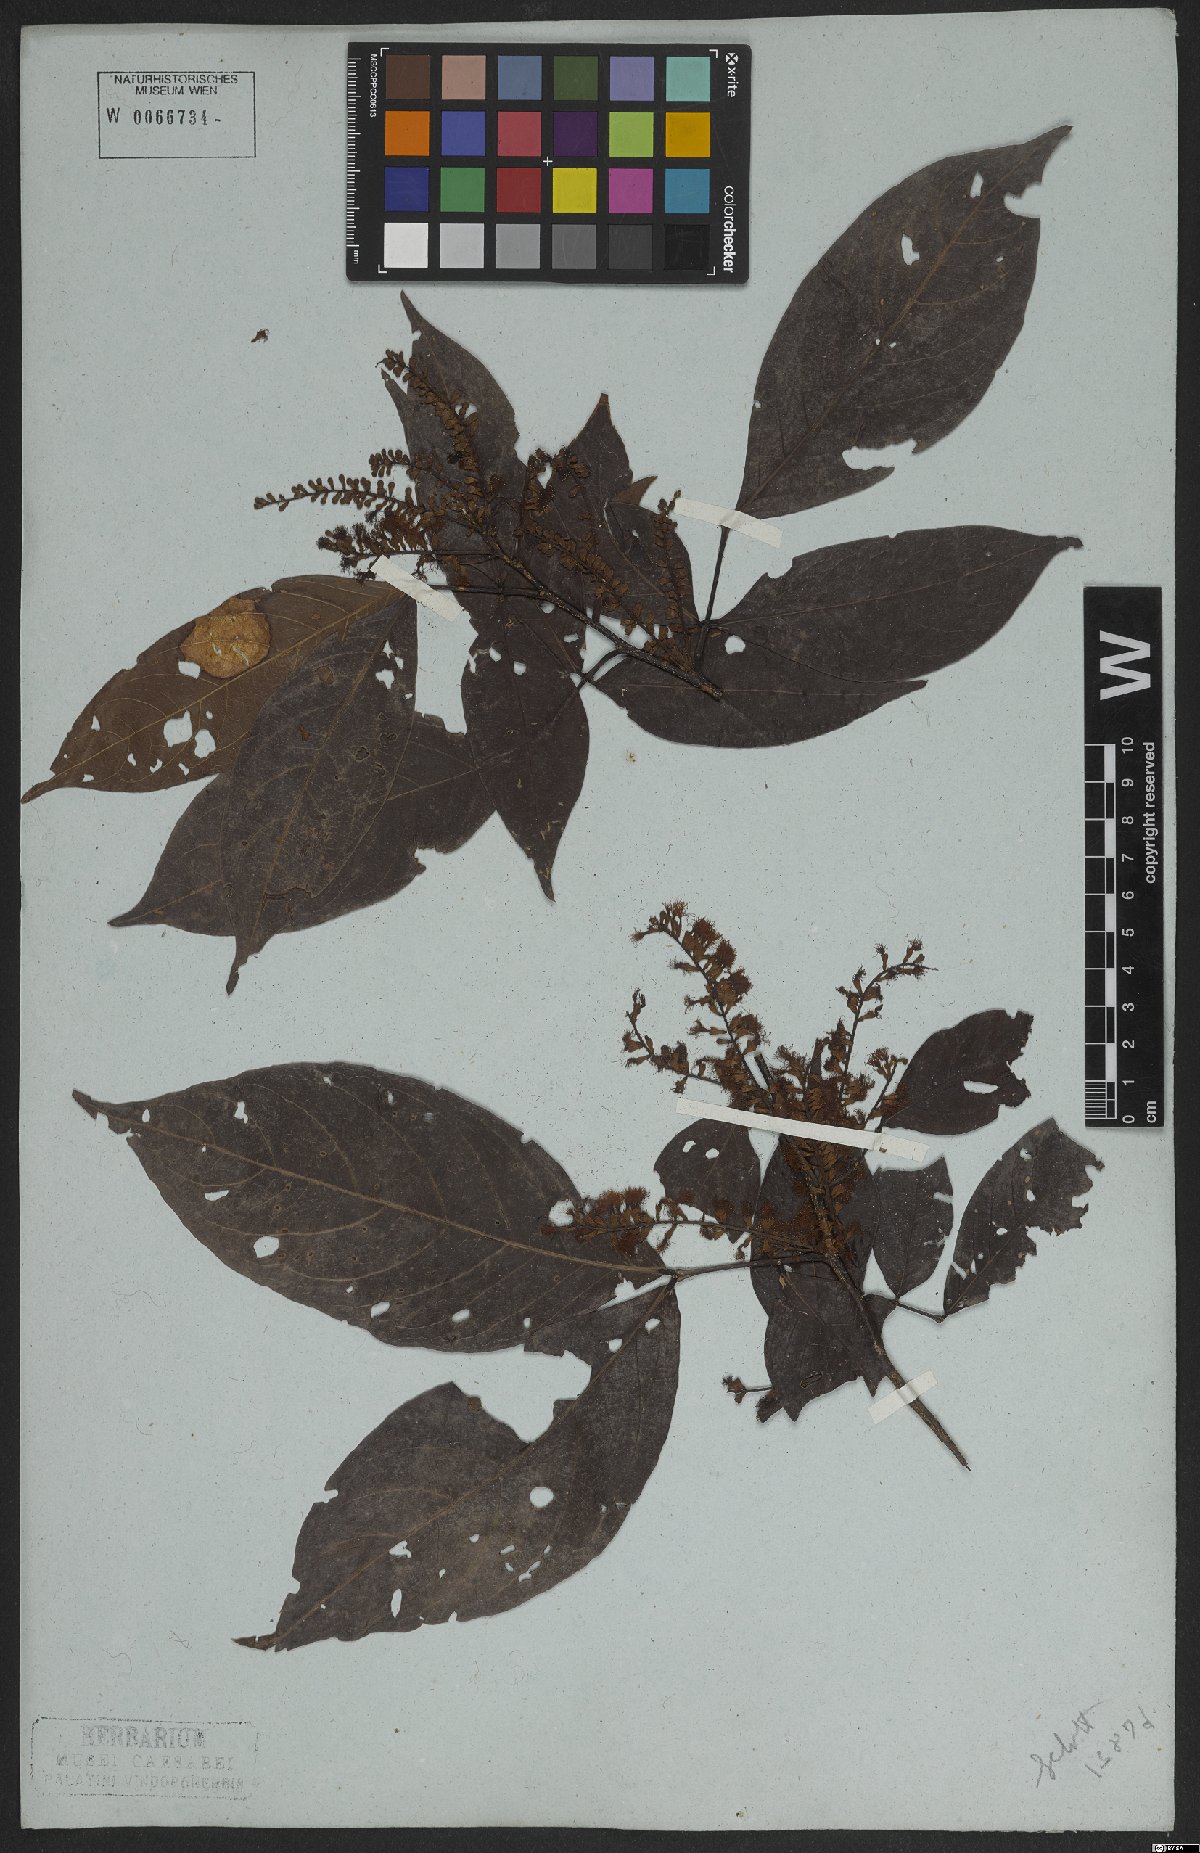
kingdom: Plantae
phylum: Tracheophyta
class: Magnoliopsida
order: Fabales
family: Fabaceae
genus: Inga
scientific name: Inga marginata
